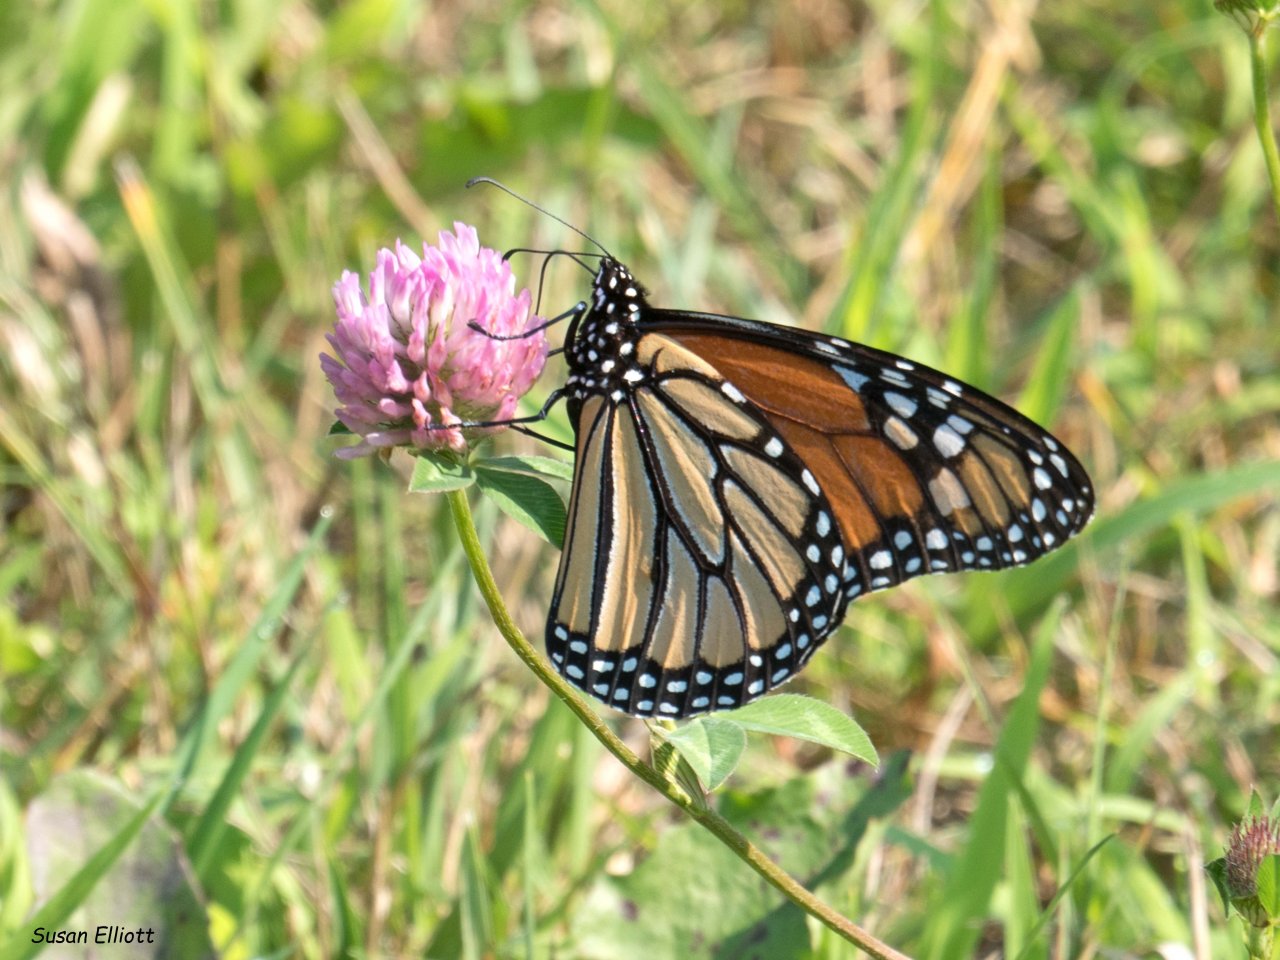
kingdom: Animalia
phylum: Arthropoda
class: Insecta
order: Lepidoptera
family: Nymphalidae
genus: Danaus
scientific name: Danaus plexippus
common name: Monarch
